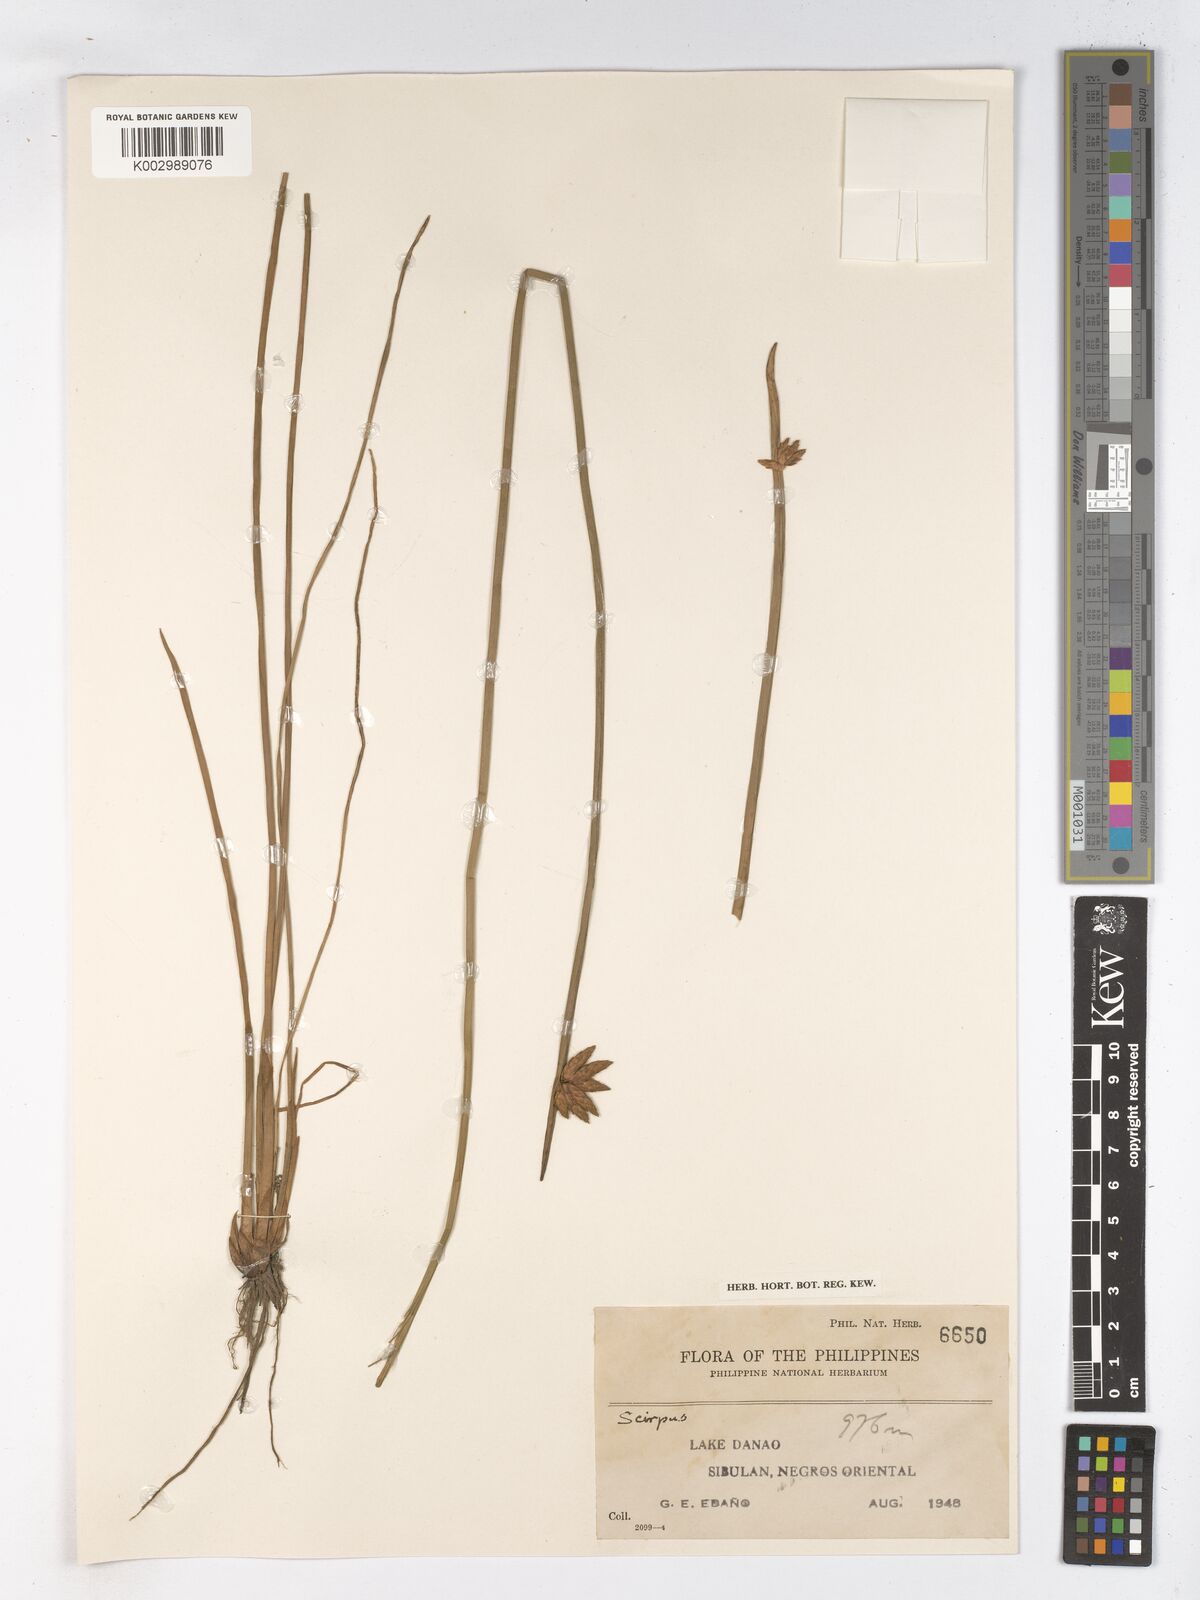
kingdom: Plantae
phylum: Tracheophyta
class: Liliopsida
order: Poales
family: Cyperaceae
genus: Schoenoplectus
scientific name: Schoenoplectus
